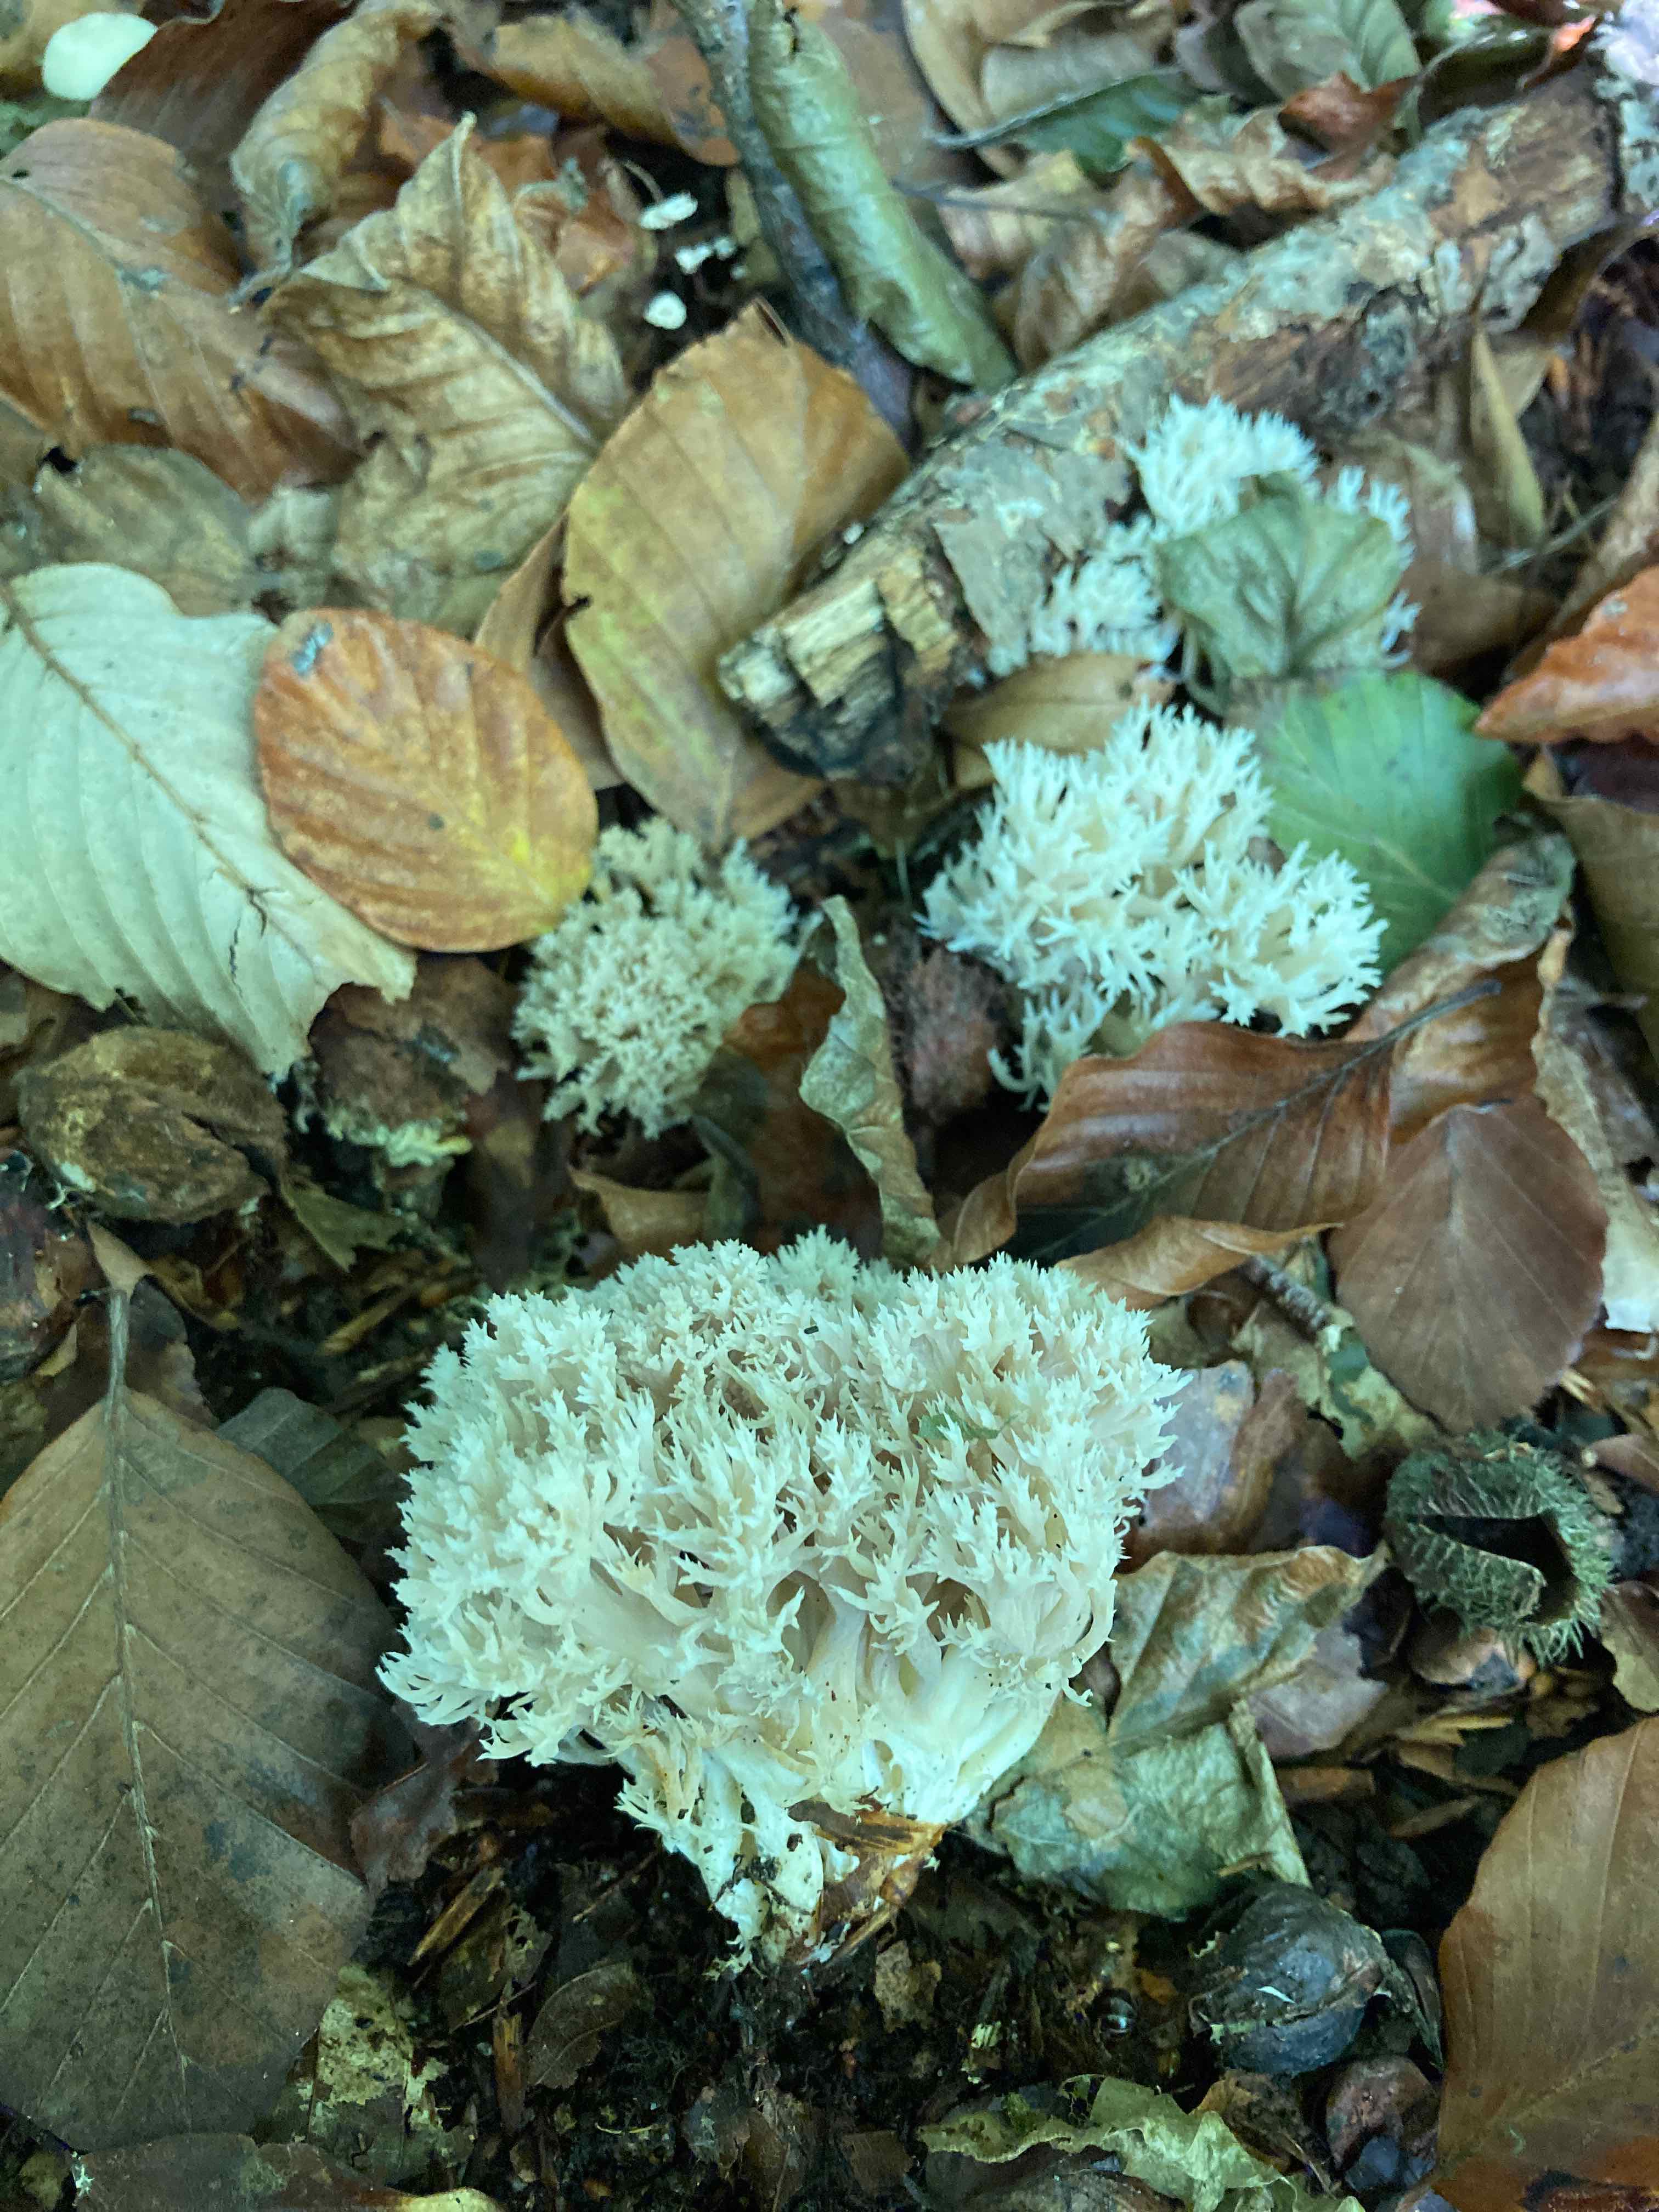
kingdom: Fungi
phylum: Basidiomycota
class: Agaricomycetes
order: Cantharellales
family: Hydnaceae
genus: Clavulina
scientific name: Clavulina coralloides
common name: Crested coral
